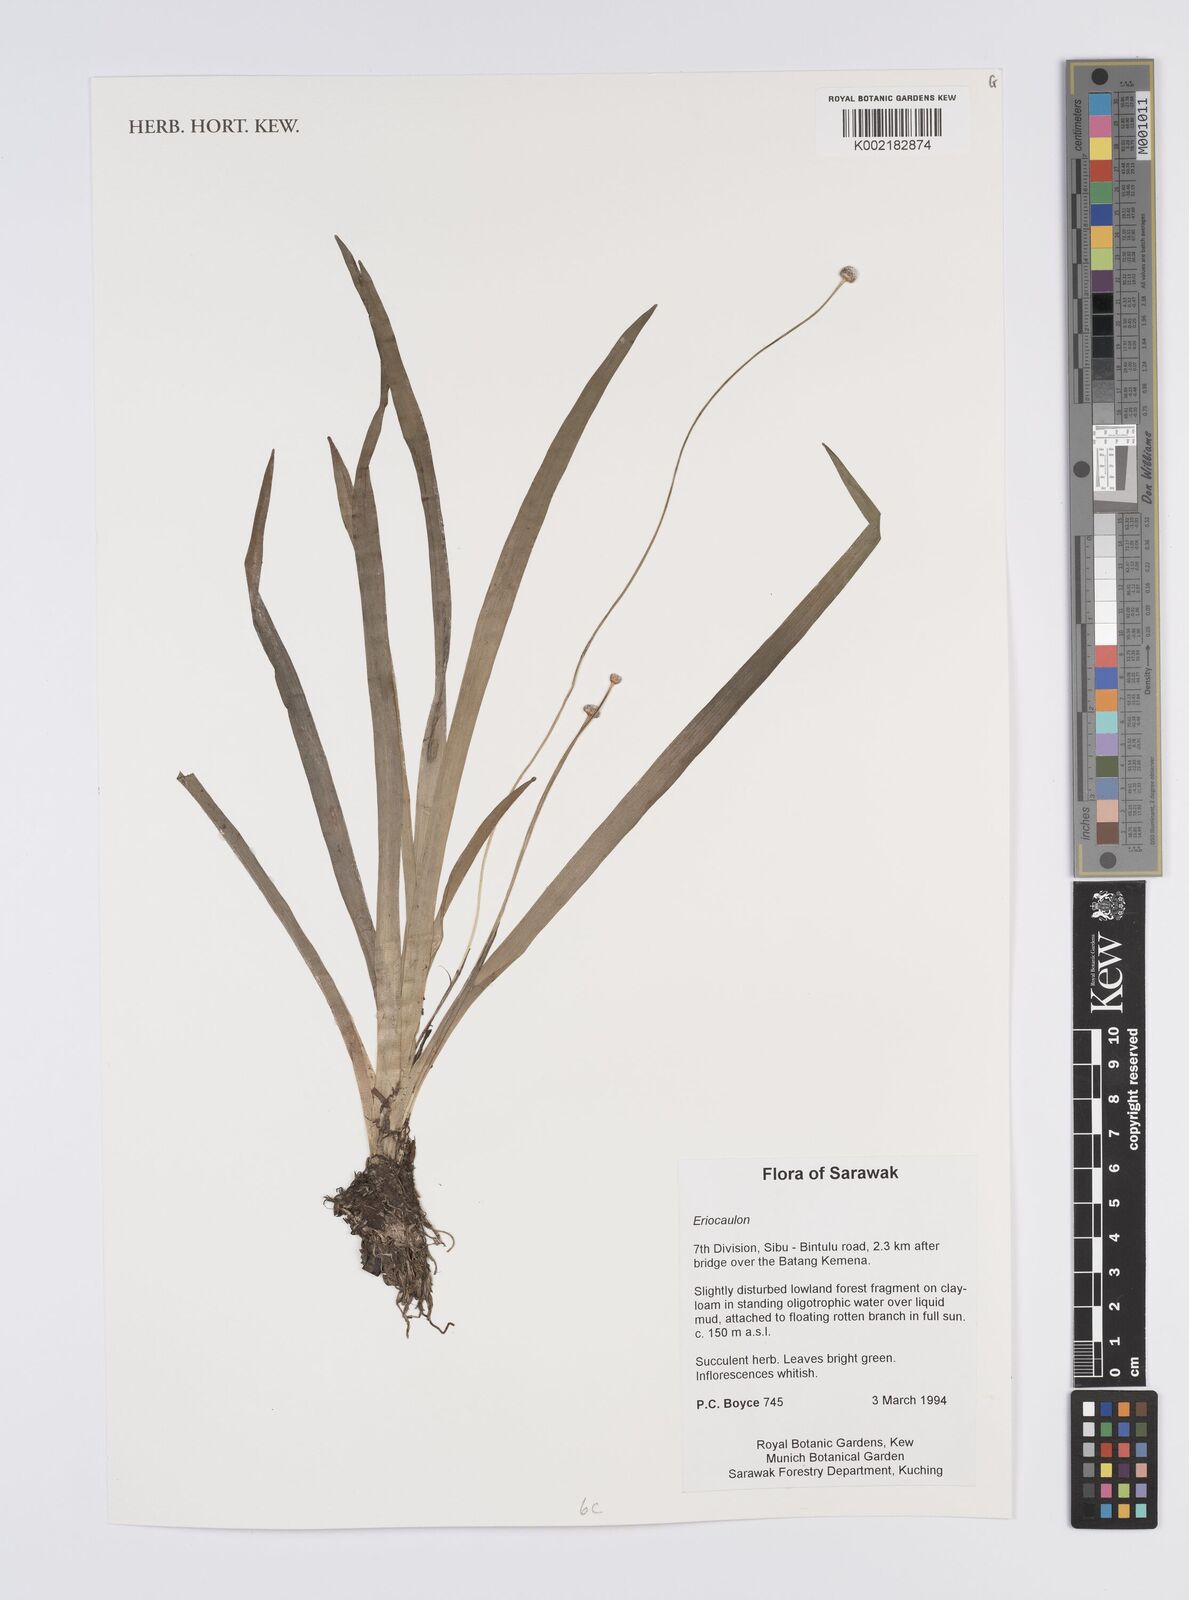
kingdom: Plantae
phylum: Tracheophyta
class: Liliopsida
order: Poales
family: Eriocaulaceae
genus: Eriocaulon
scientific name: Eriocaulon
